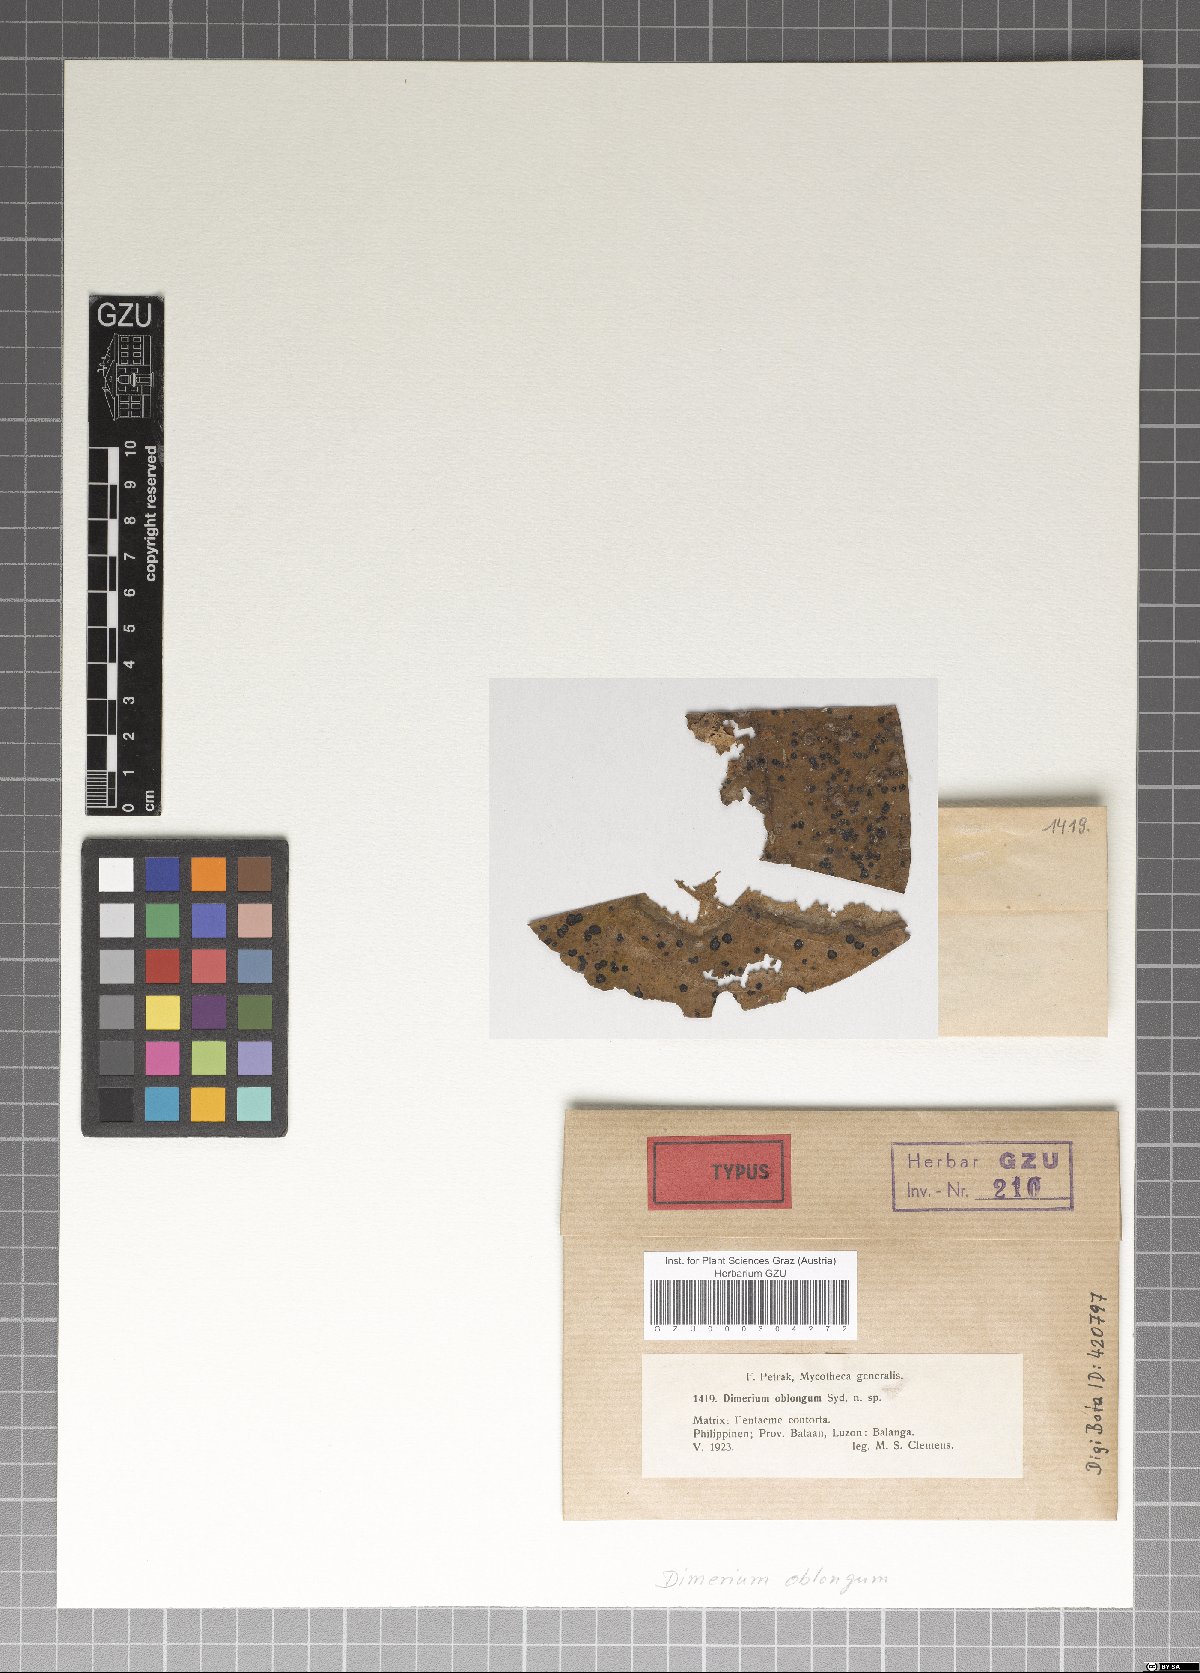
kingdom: Fungi
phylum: Ascomycota
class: Dothideomycetes
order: Dothideales
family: Parodiopsidaceae
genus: Dimerium
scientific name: Dimerium oblongum
